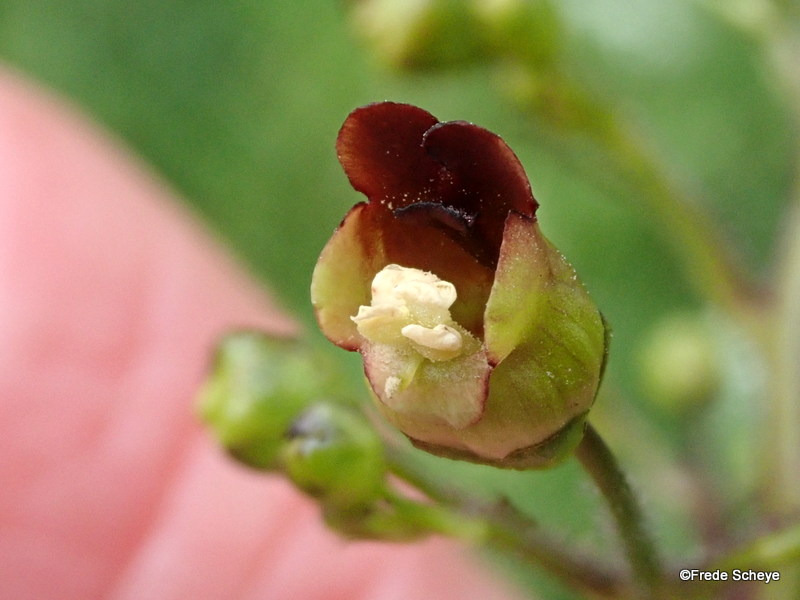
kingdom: Plantae
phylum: Tracheophyta
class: Magnoliopsida
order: Lamiales
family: Scrophulariaceae
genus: Scrophularia
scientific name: Scrophularia nodosa
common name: Knoldet brunrod
